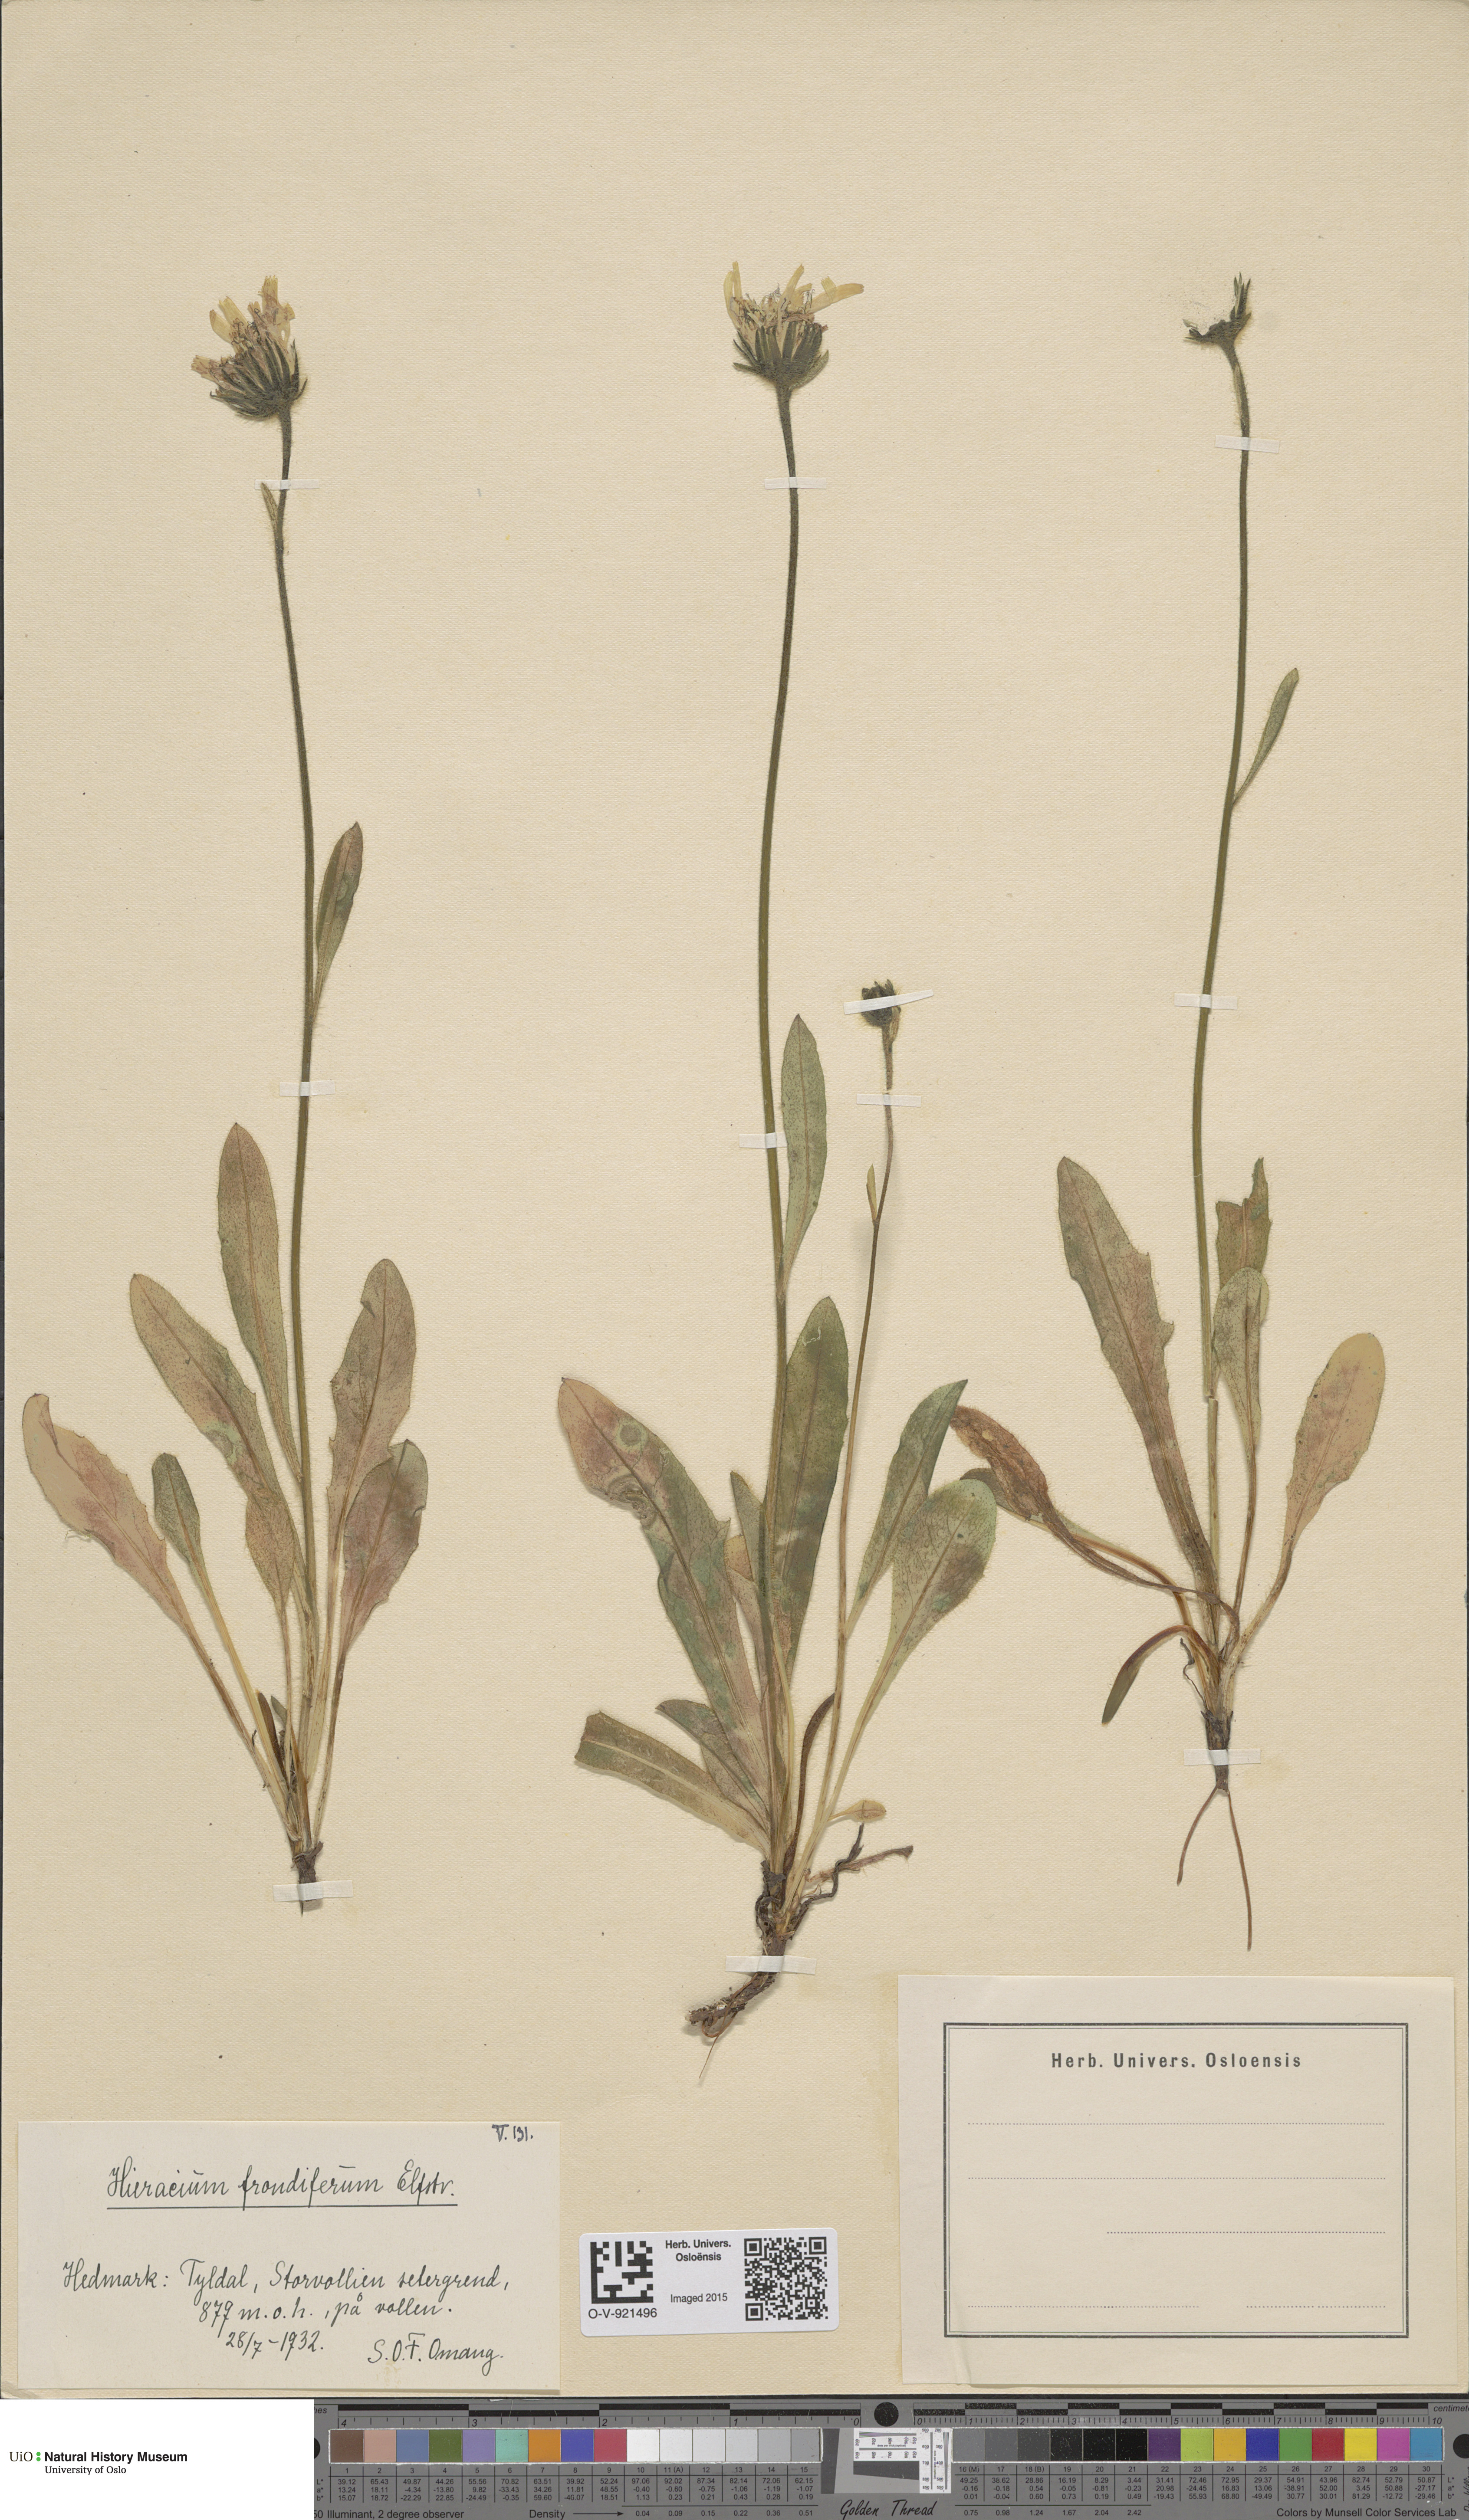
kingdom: Plantae
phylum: Tracheophyta
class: Magnoliopsida
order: Asterales
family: Asteraceae
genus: Hieracium
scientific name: Hieracium alpinum
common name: Alpine hawkweed
